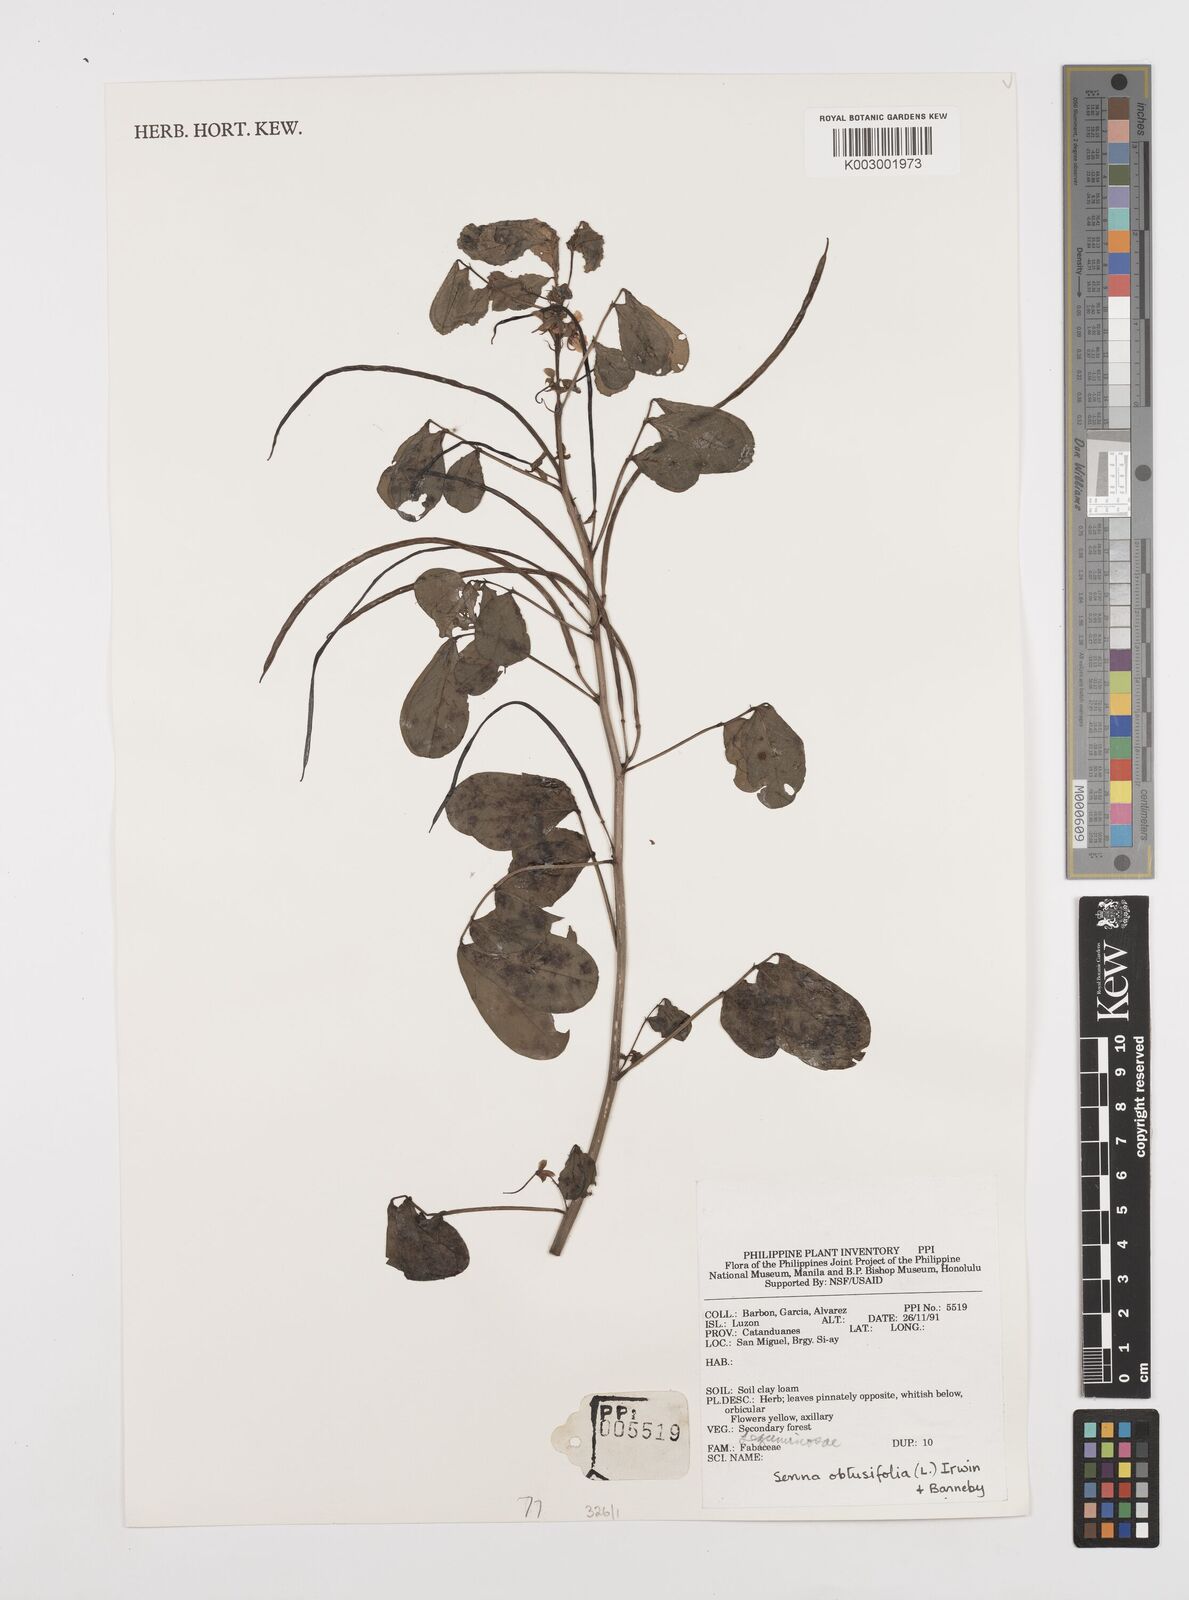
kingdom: Plantae
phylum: Tracheophyta
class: Magnoliopsida
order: Fabales
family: Fabaceae
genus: Senna
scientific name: Senna occidentalis
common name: Septicweed
